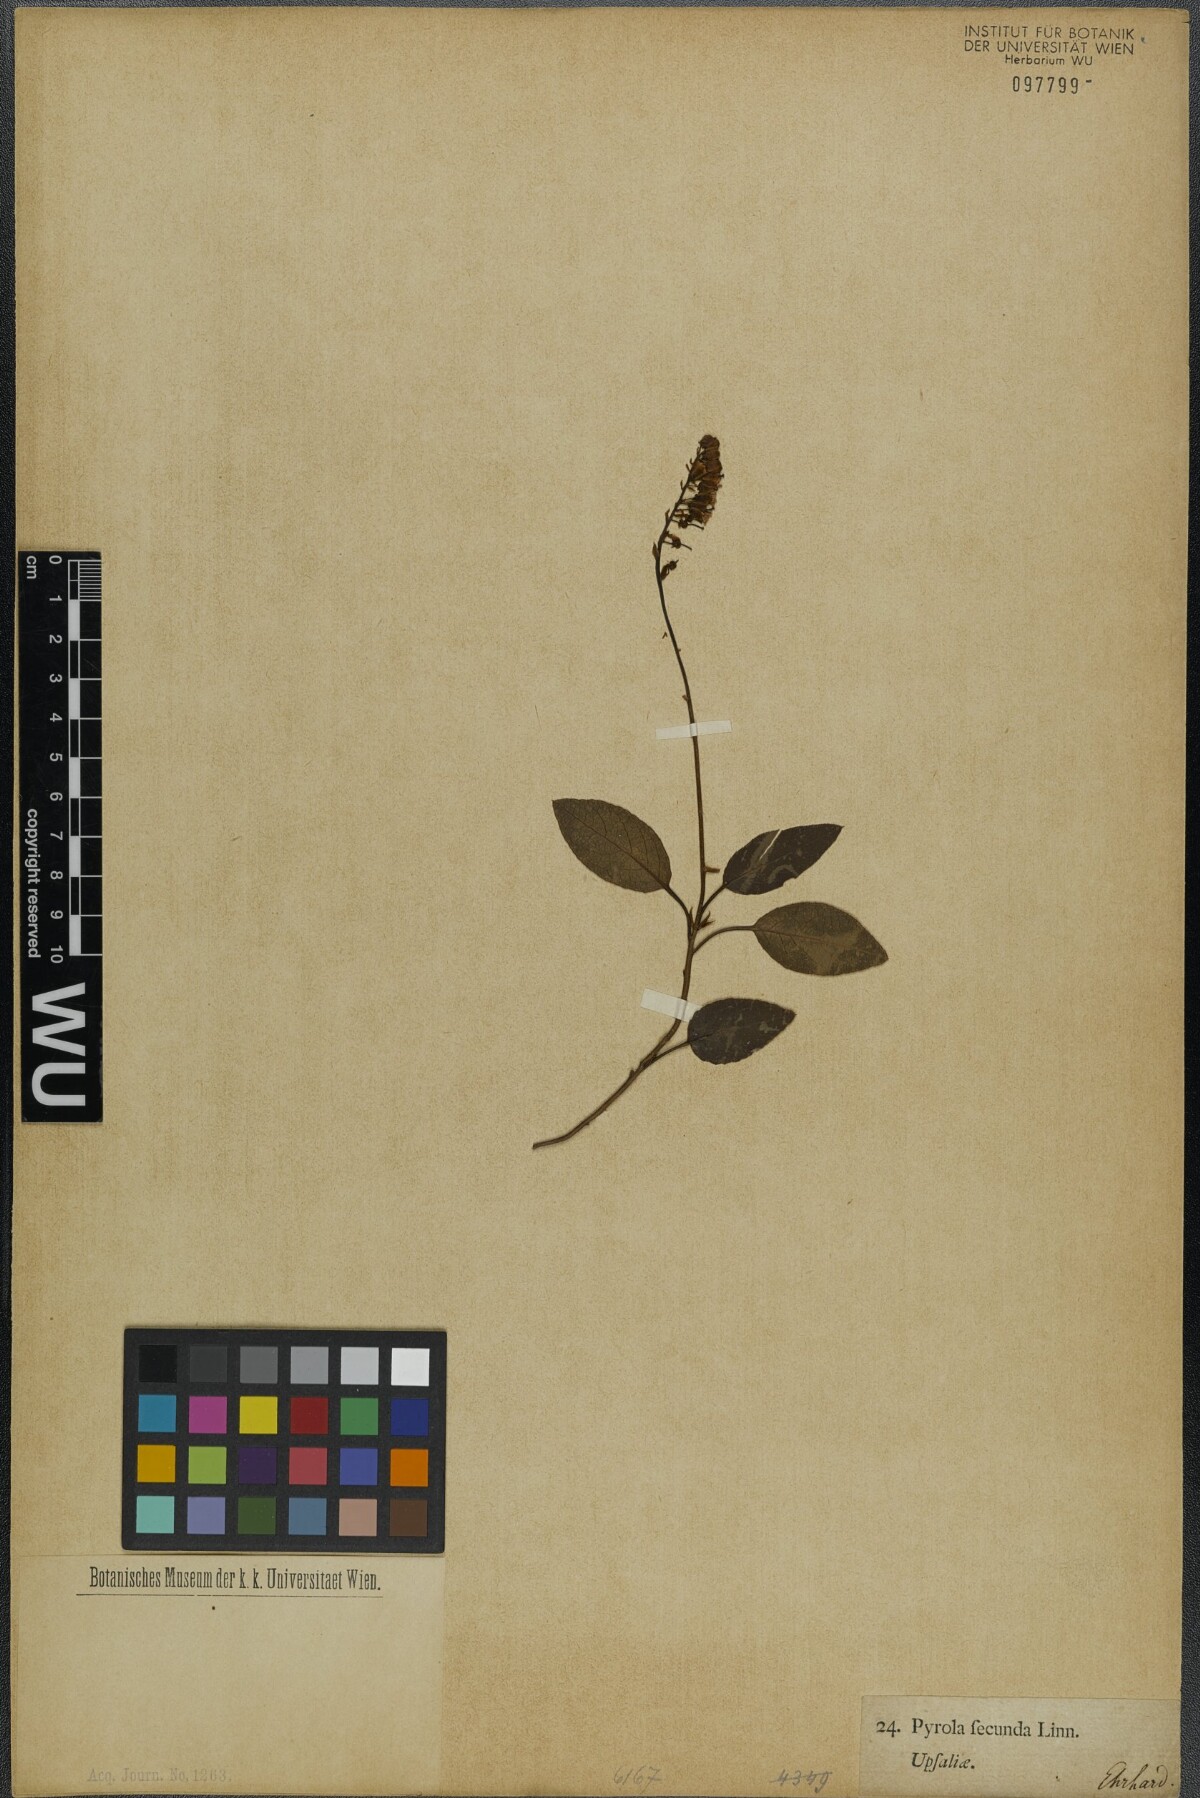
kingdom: Plantae
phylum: Tracheophyta
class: Magnoliopsida
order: Ericales
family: Ericaceae
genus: Orthilia
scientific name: Orthilia secunda
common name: One-sided orthilia
